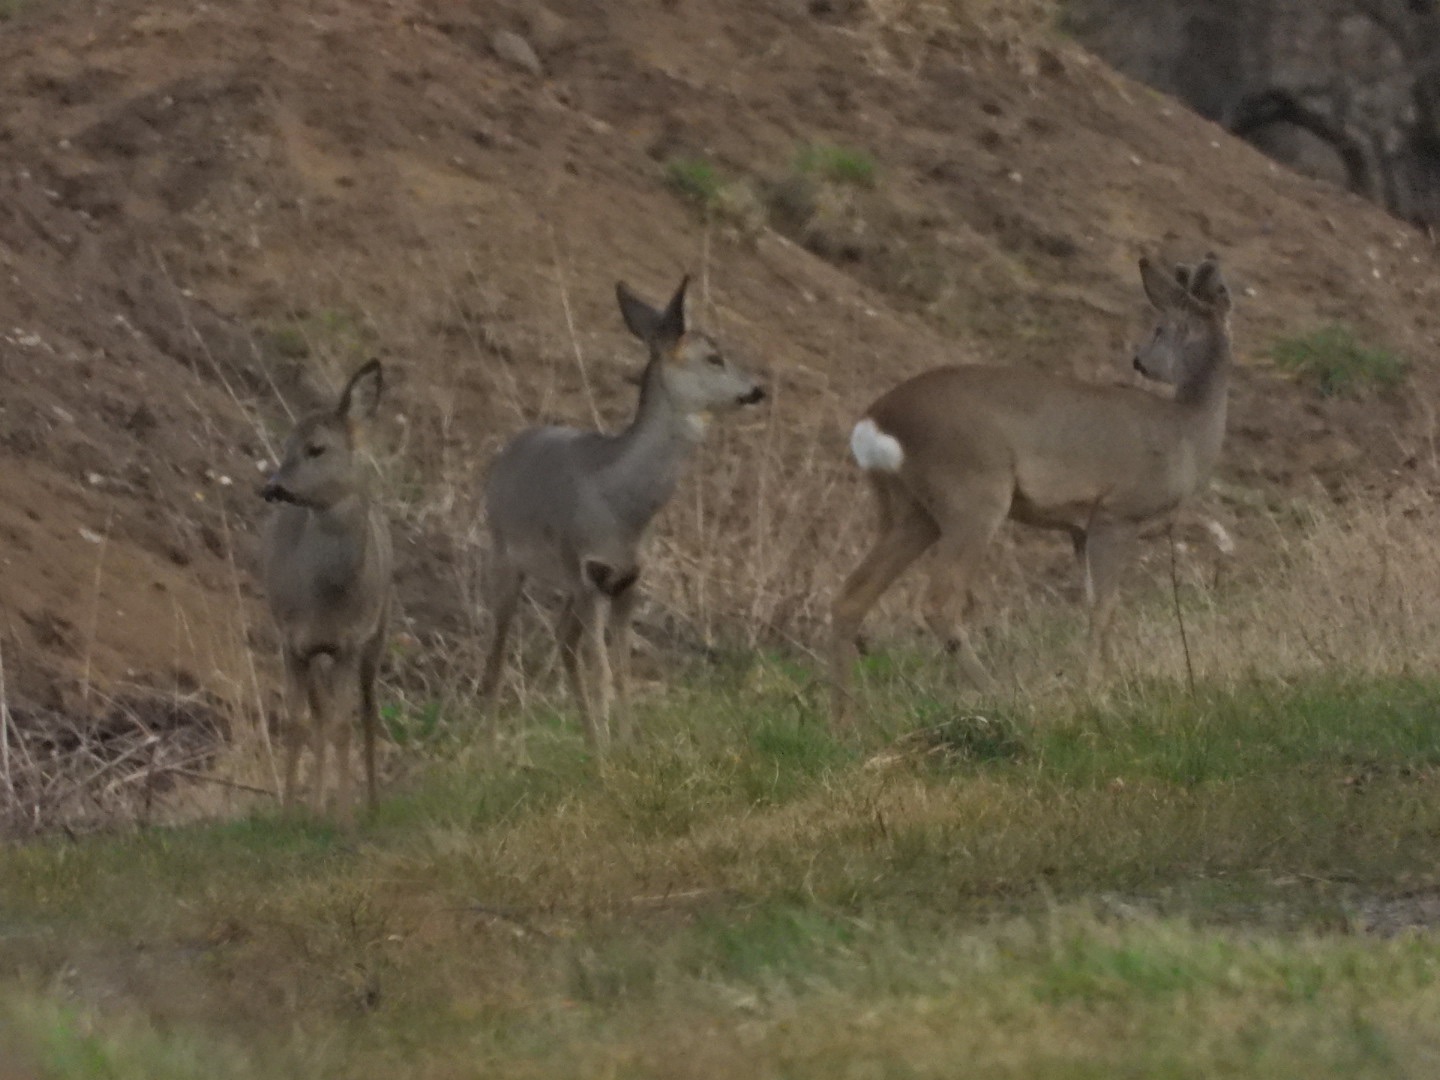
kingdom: Animalia
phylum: Chordata
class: Mammalia
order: Artiodactyla
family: Cervidae
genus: Capreolus
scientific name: Capreolus capreolus
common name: Rådyr
